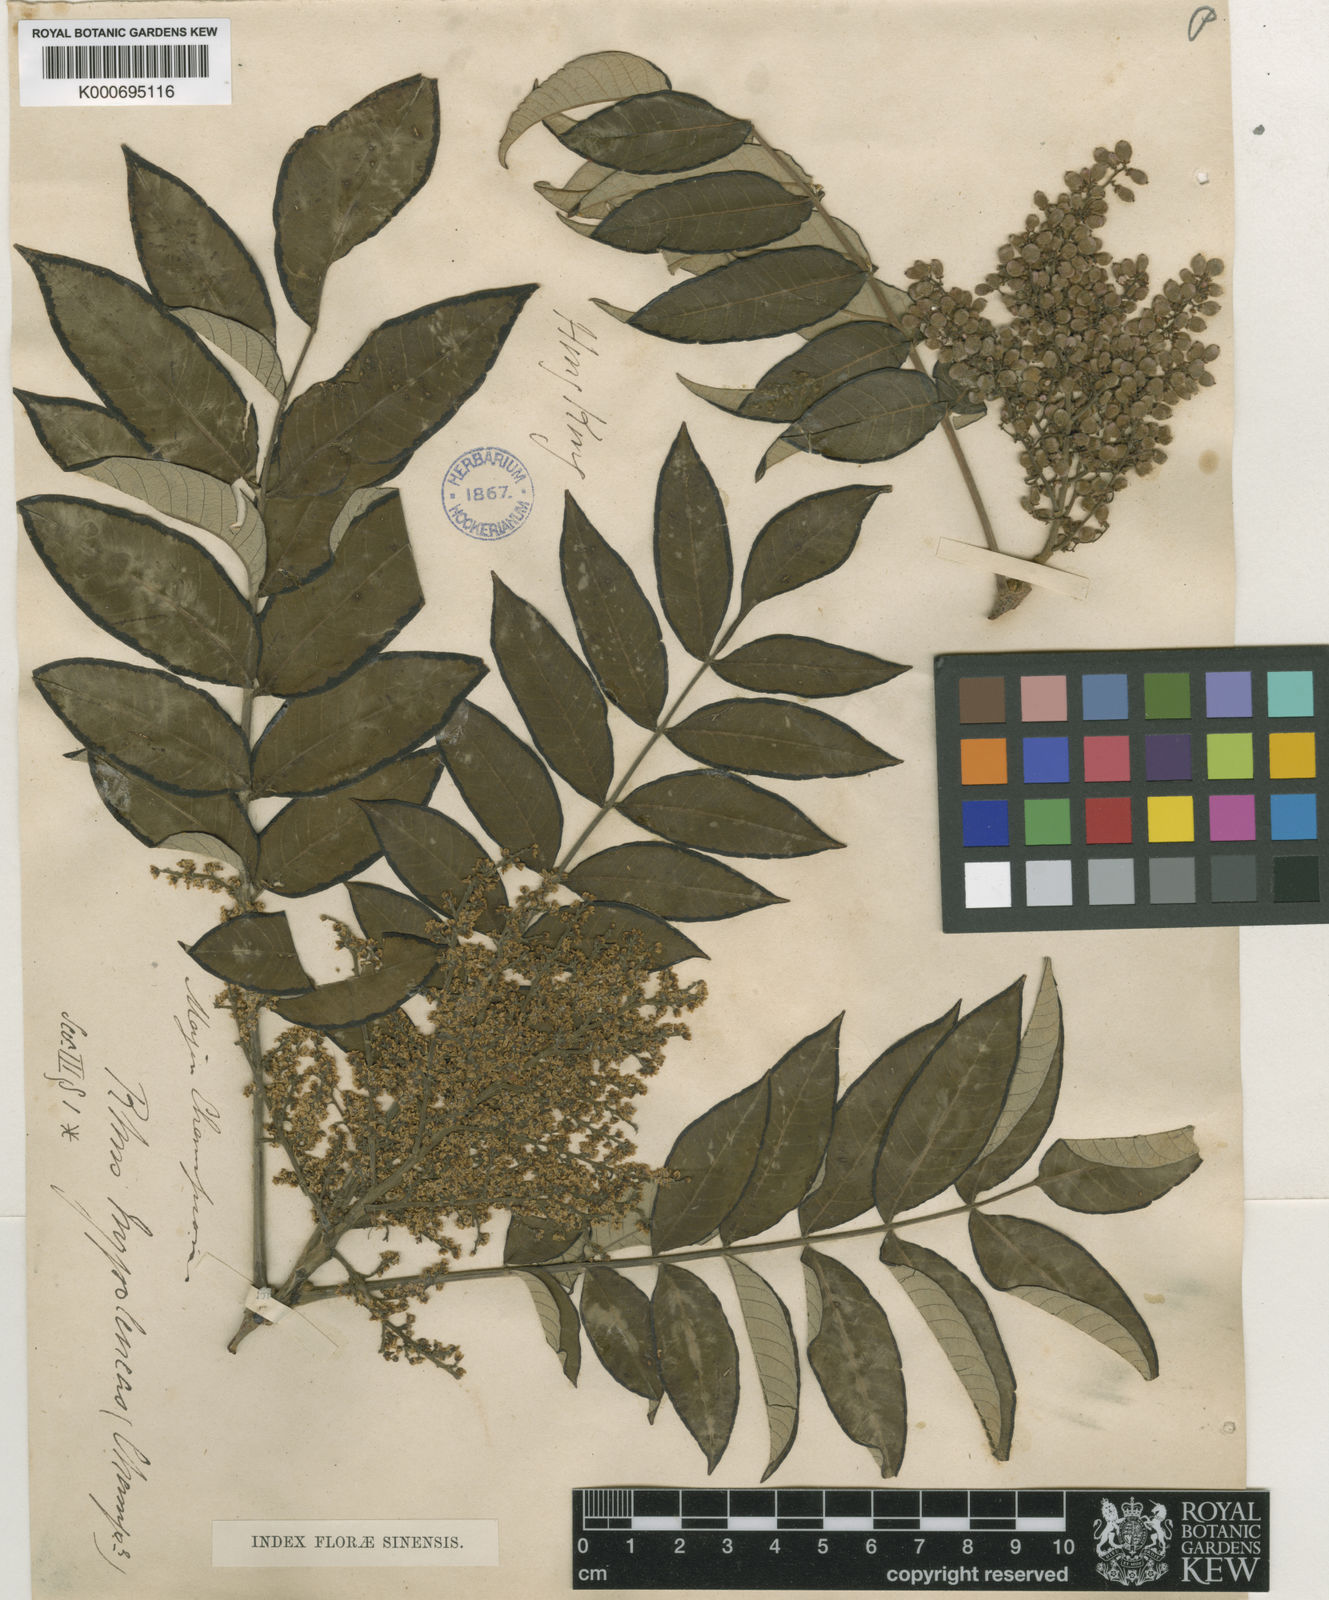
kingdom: Plantae
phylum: Tracheophyta
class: Magnoliopsida
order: Sapindales
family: Anacardiaceae
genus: Rhus
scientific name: Rhus hypoleuca
